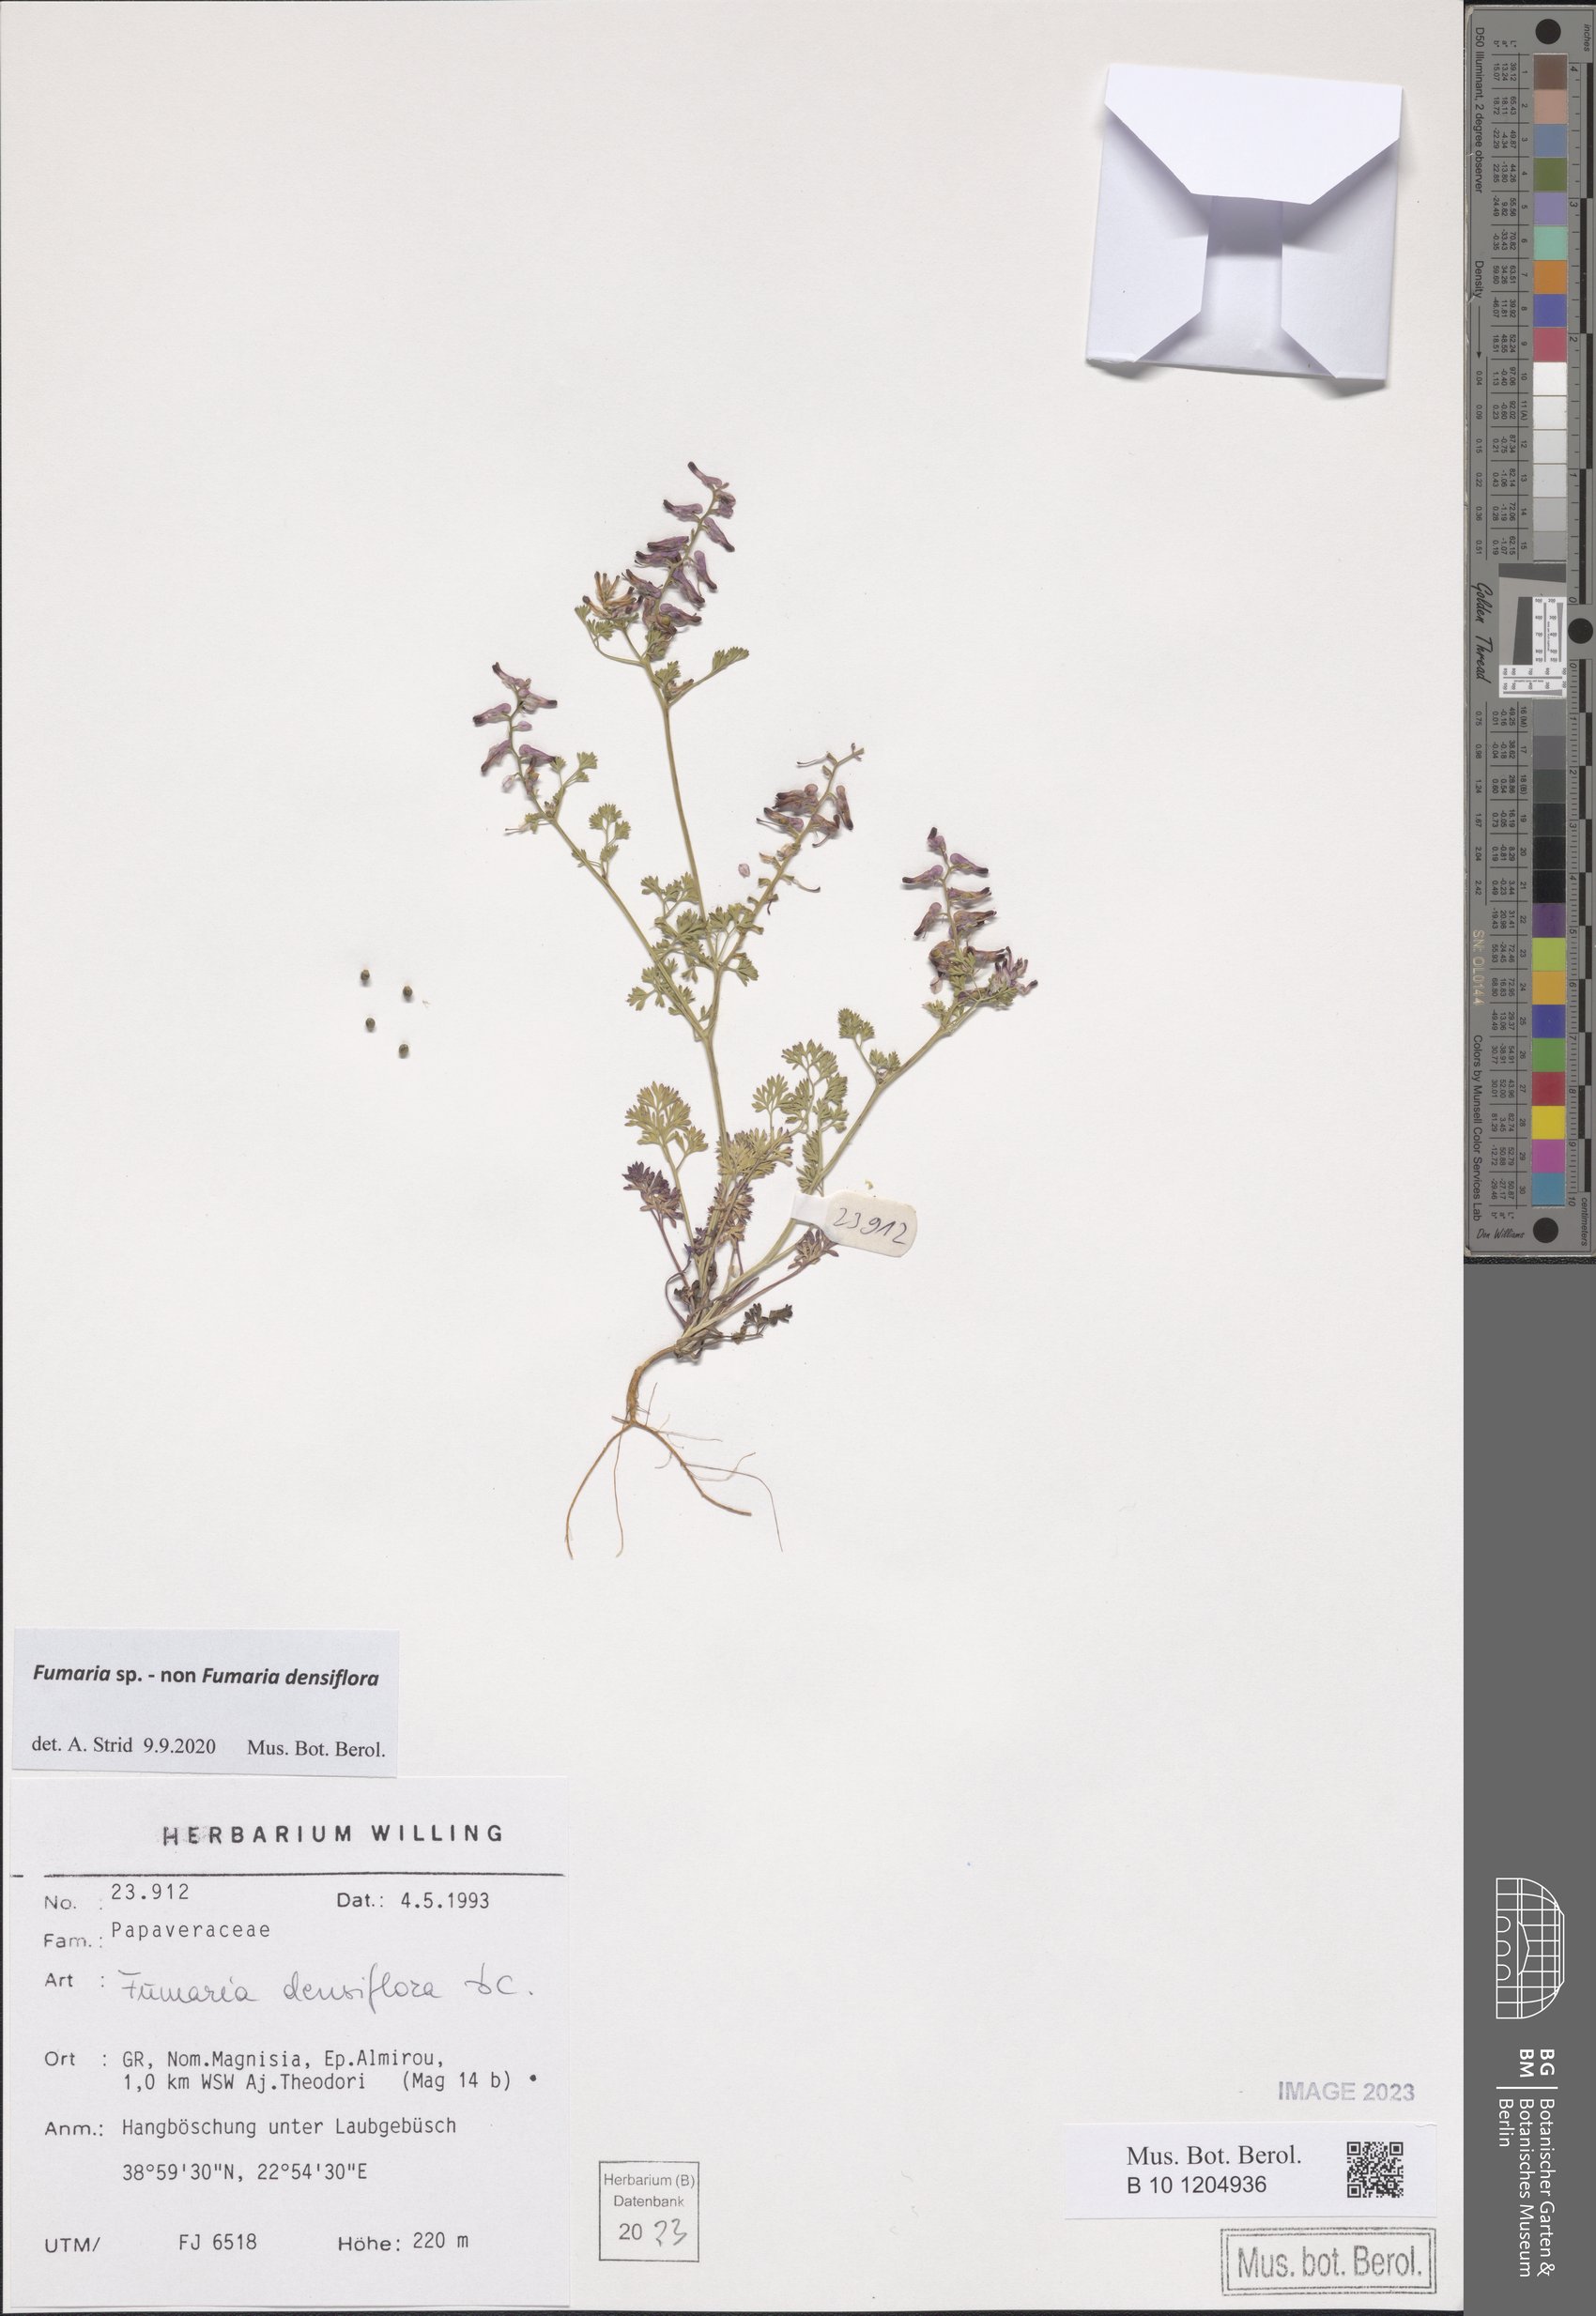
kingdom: Plantae
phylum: Tracheophyta
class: Magnoliopsida
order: Ranunculales
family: Papaveraceae
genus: Fumaria
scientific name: Fumaria
